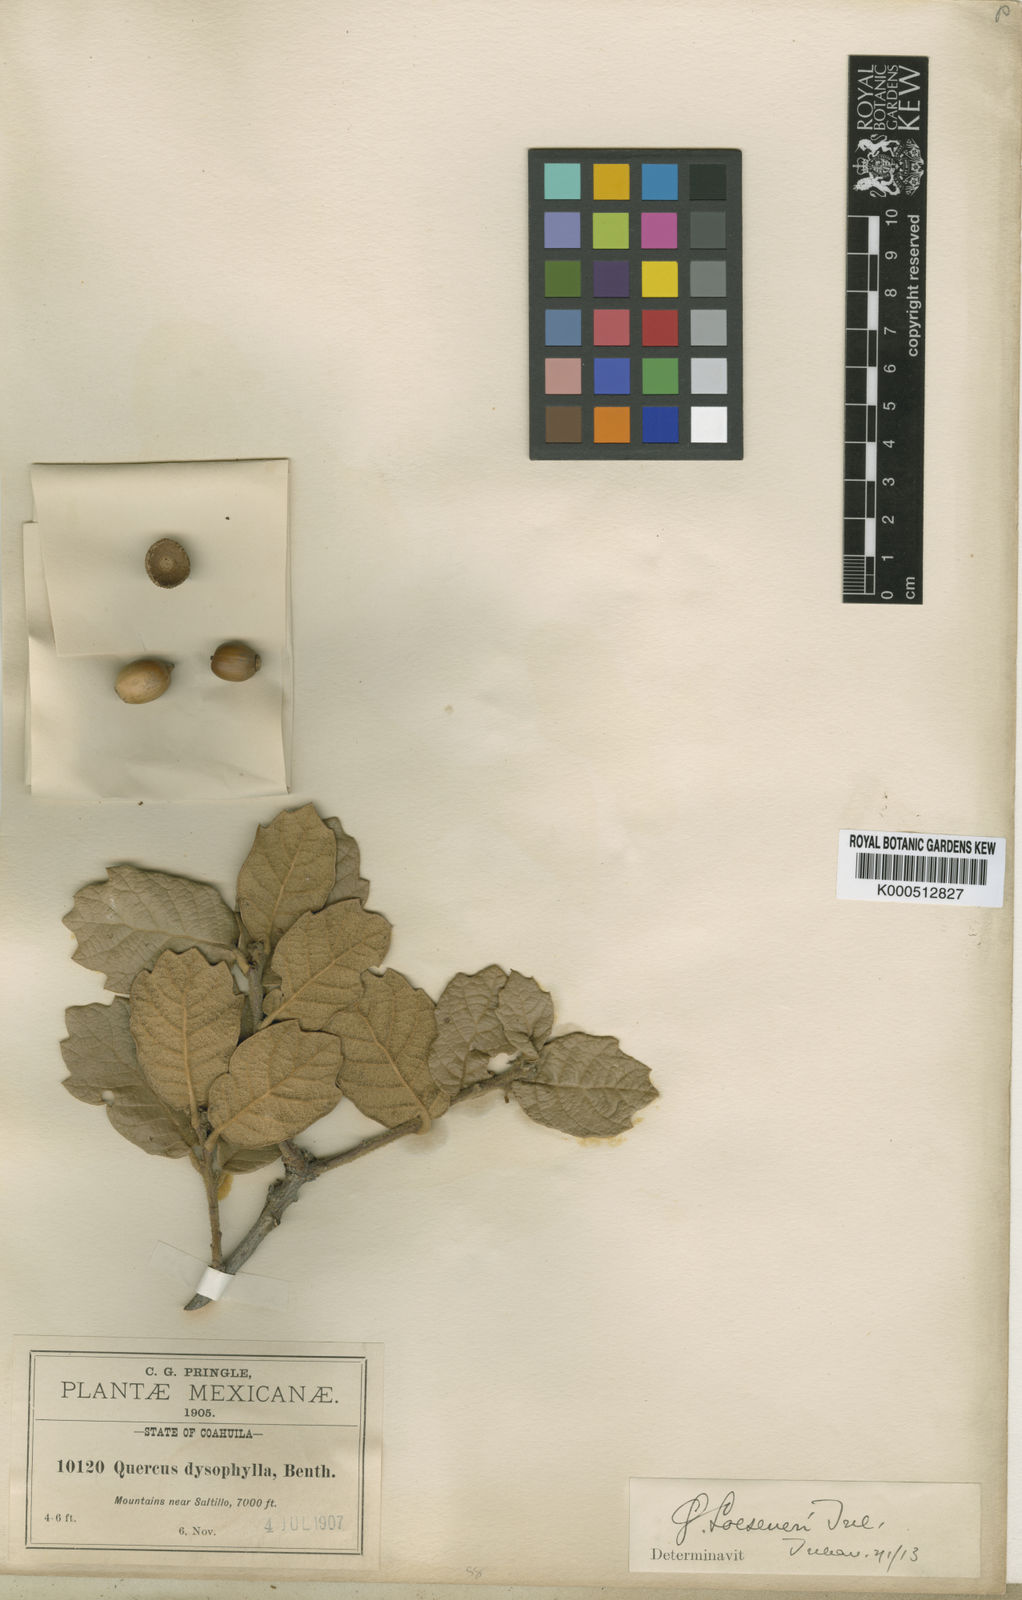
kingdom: Plantae
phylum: Tracheophyta
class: Magnoliopsida
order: Fagales
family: Fagaceae
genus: Quercus
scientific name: Quercus greggii
